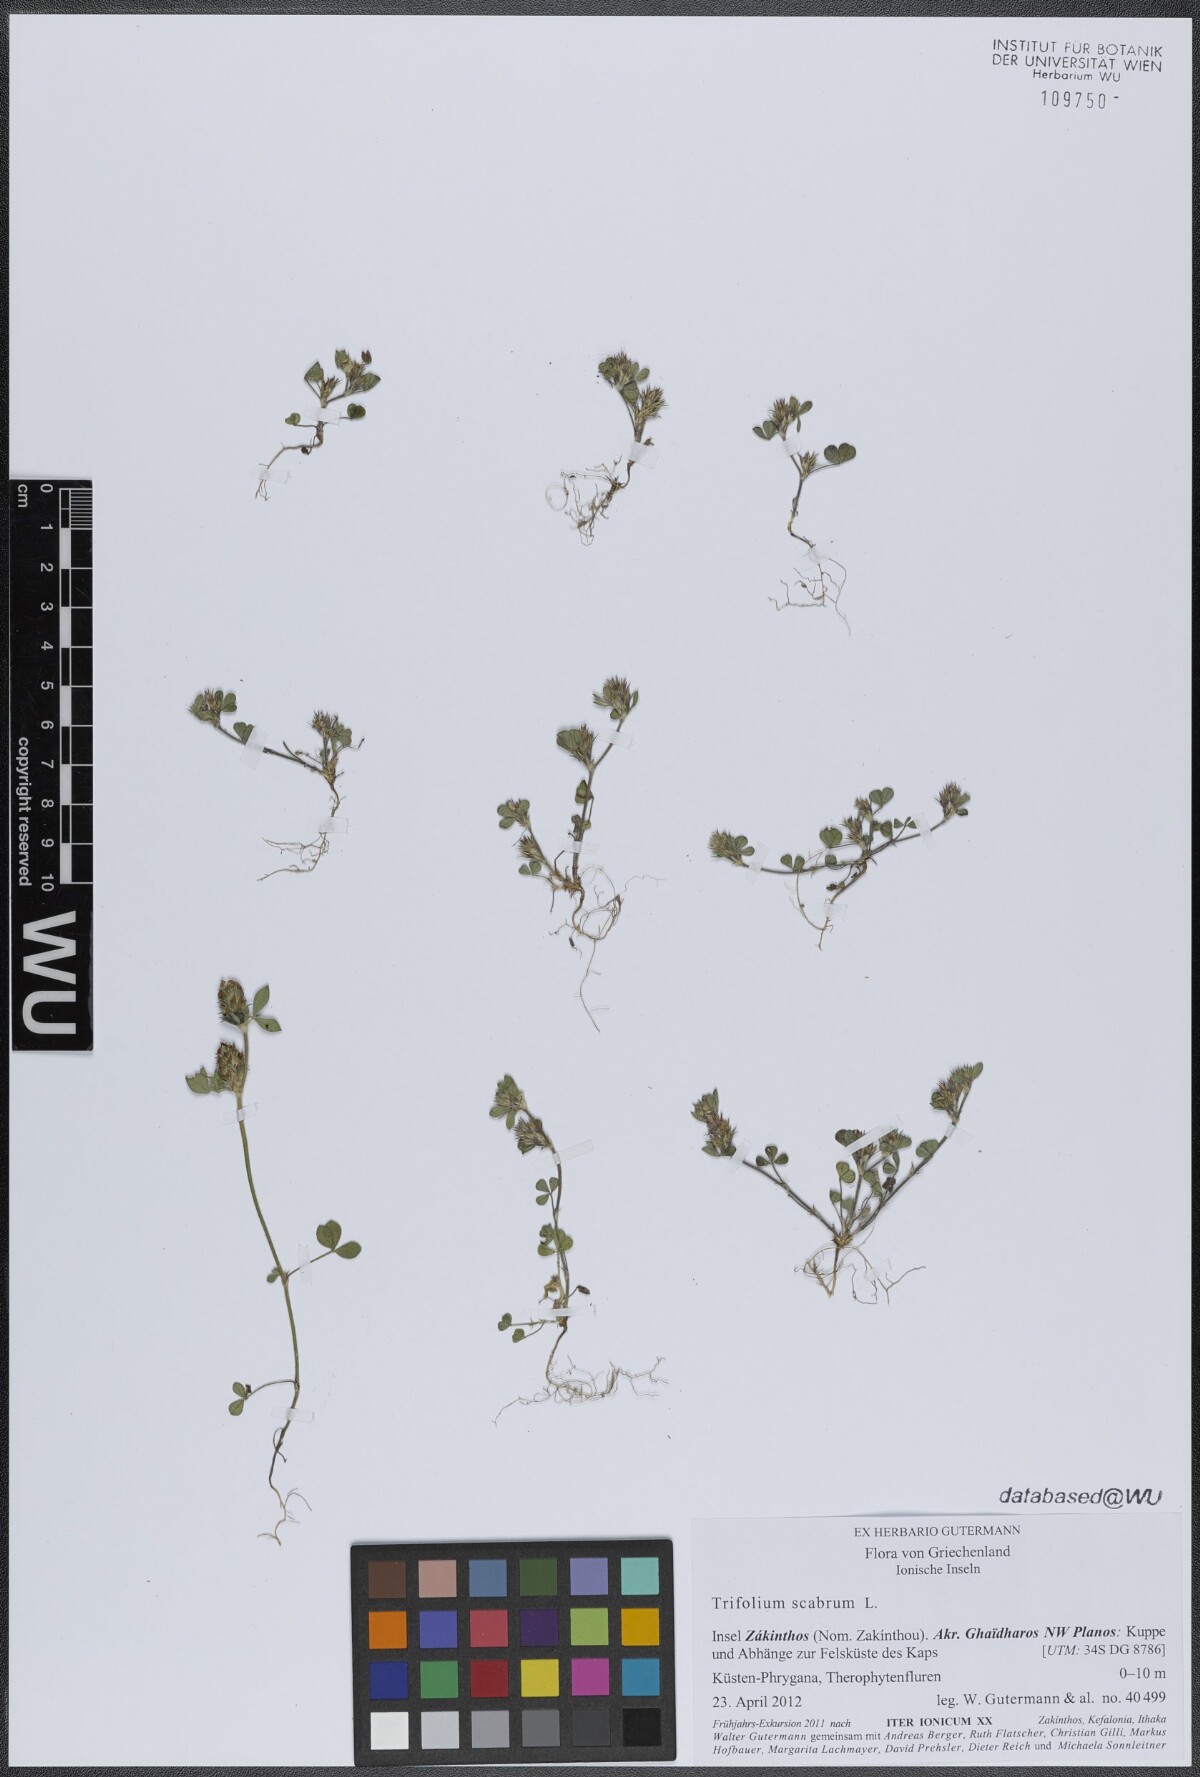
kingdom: Plantae
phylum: Tracheophyta
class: Magnoliopsida
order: Fabales
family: Fabaceae
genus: Trifolium
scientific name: Trifolium scabrum
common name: Rough clover
